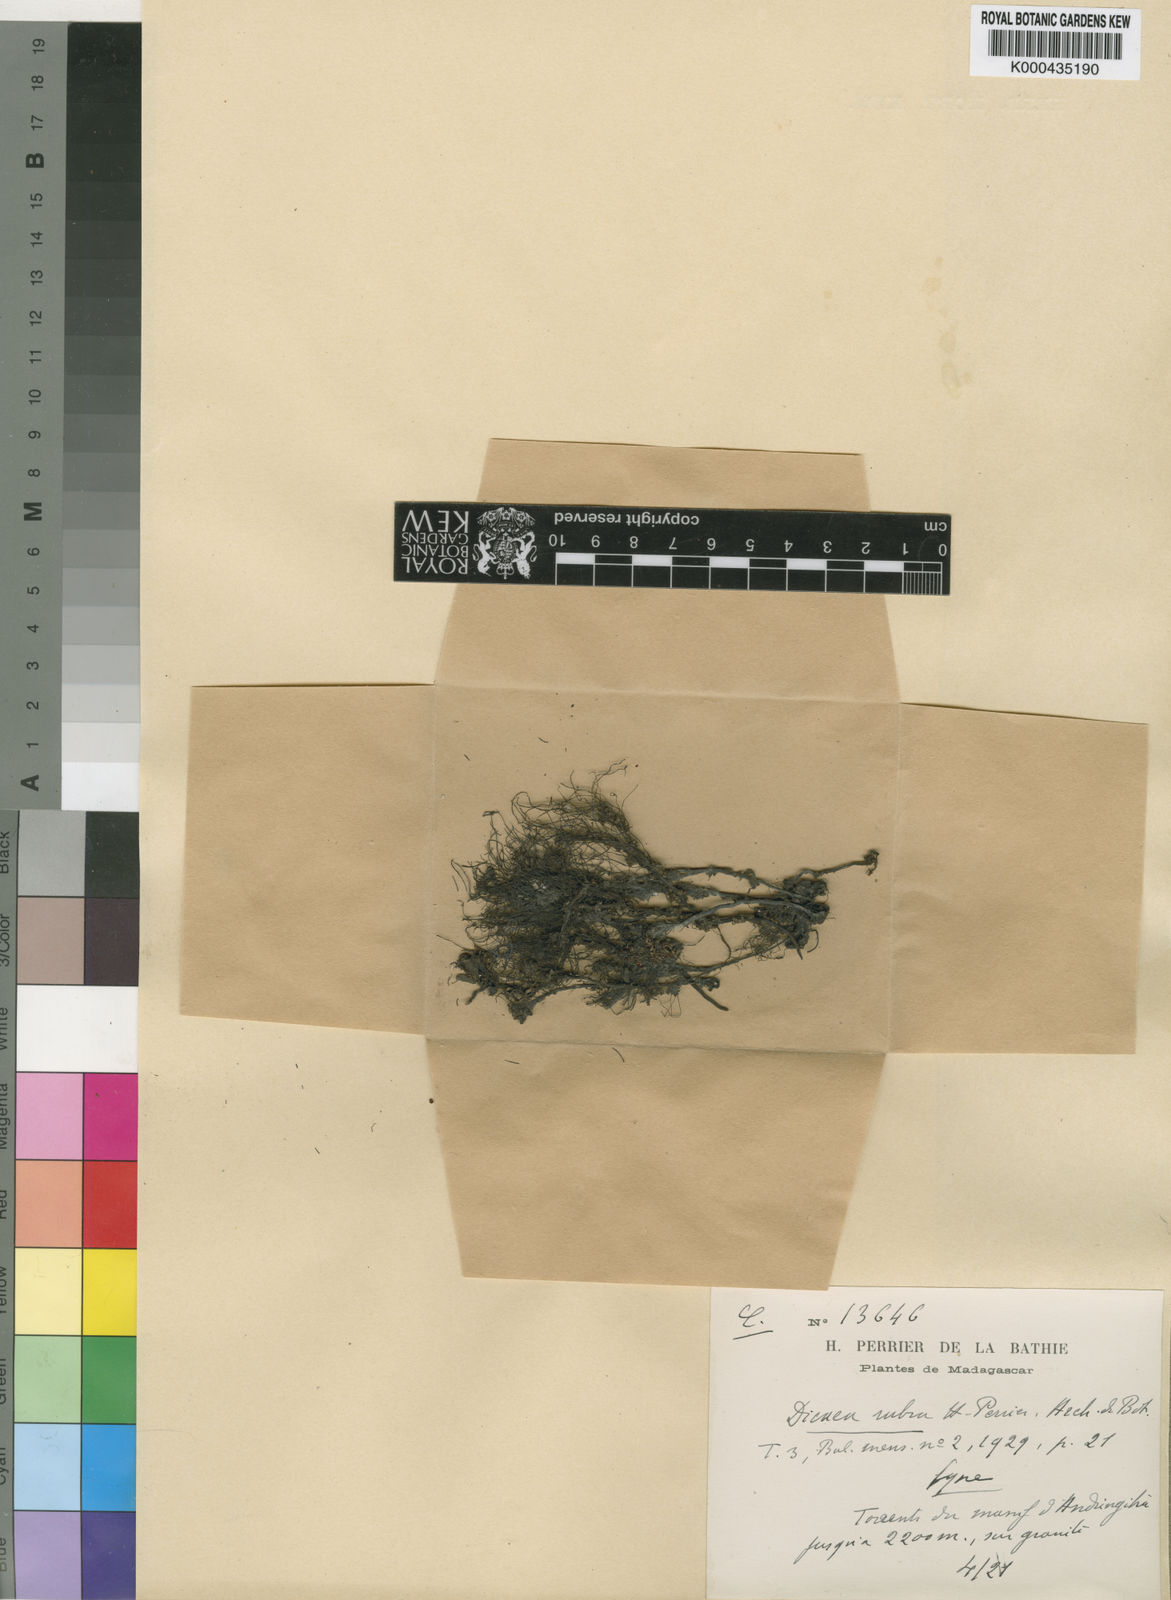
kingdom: Plantae
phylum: Tracheophyta
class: Magnoliopsida
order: Malpighiales
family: Podostemaceae
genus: Sphaerothylax
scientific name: Sphaerothylax abyssinica
